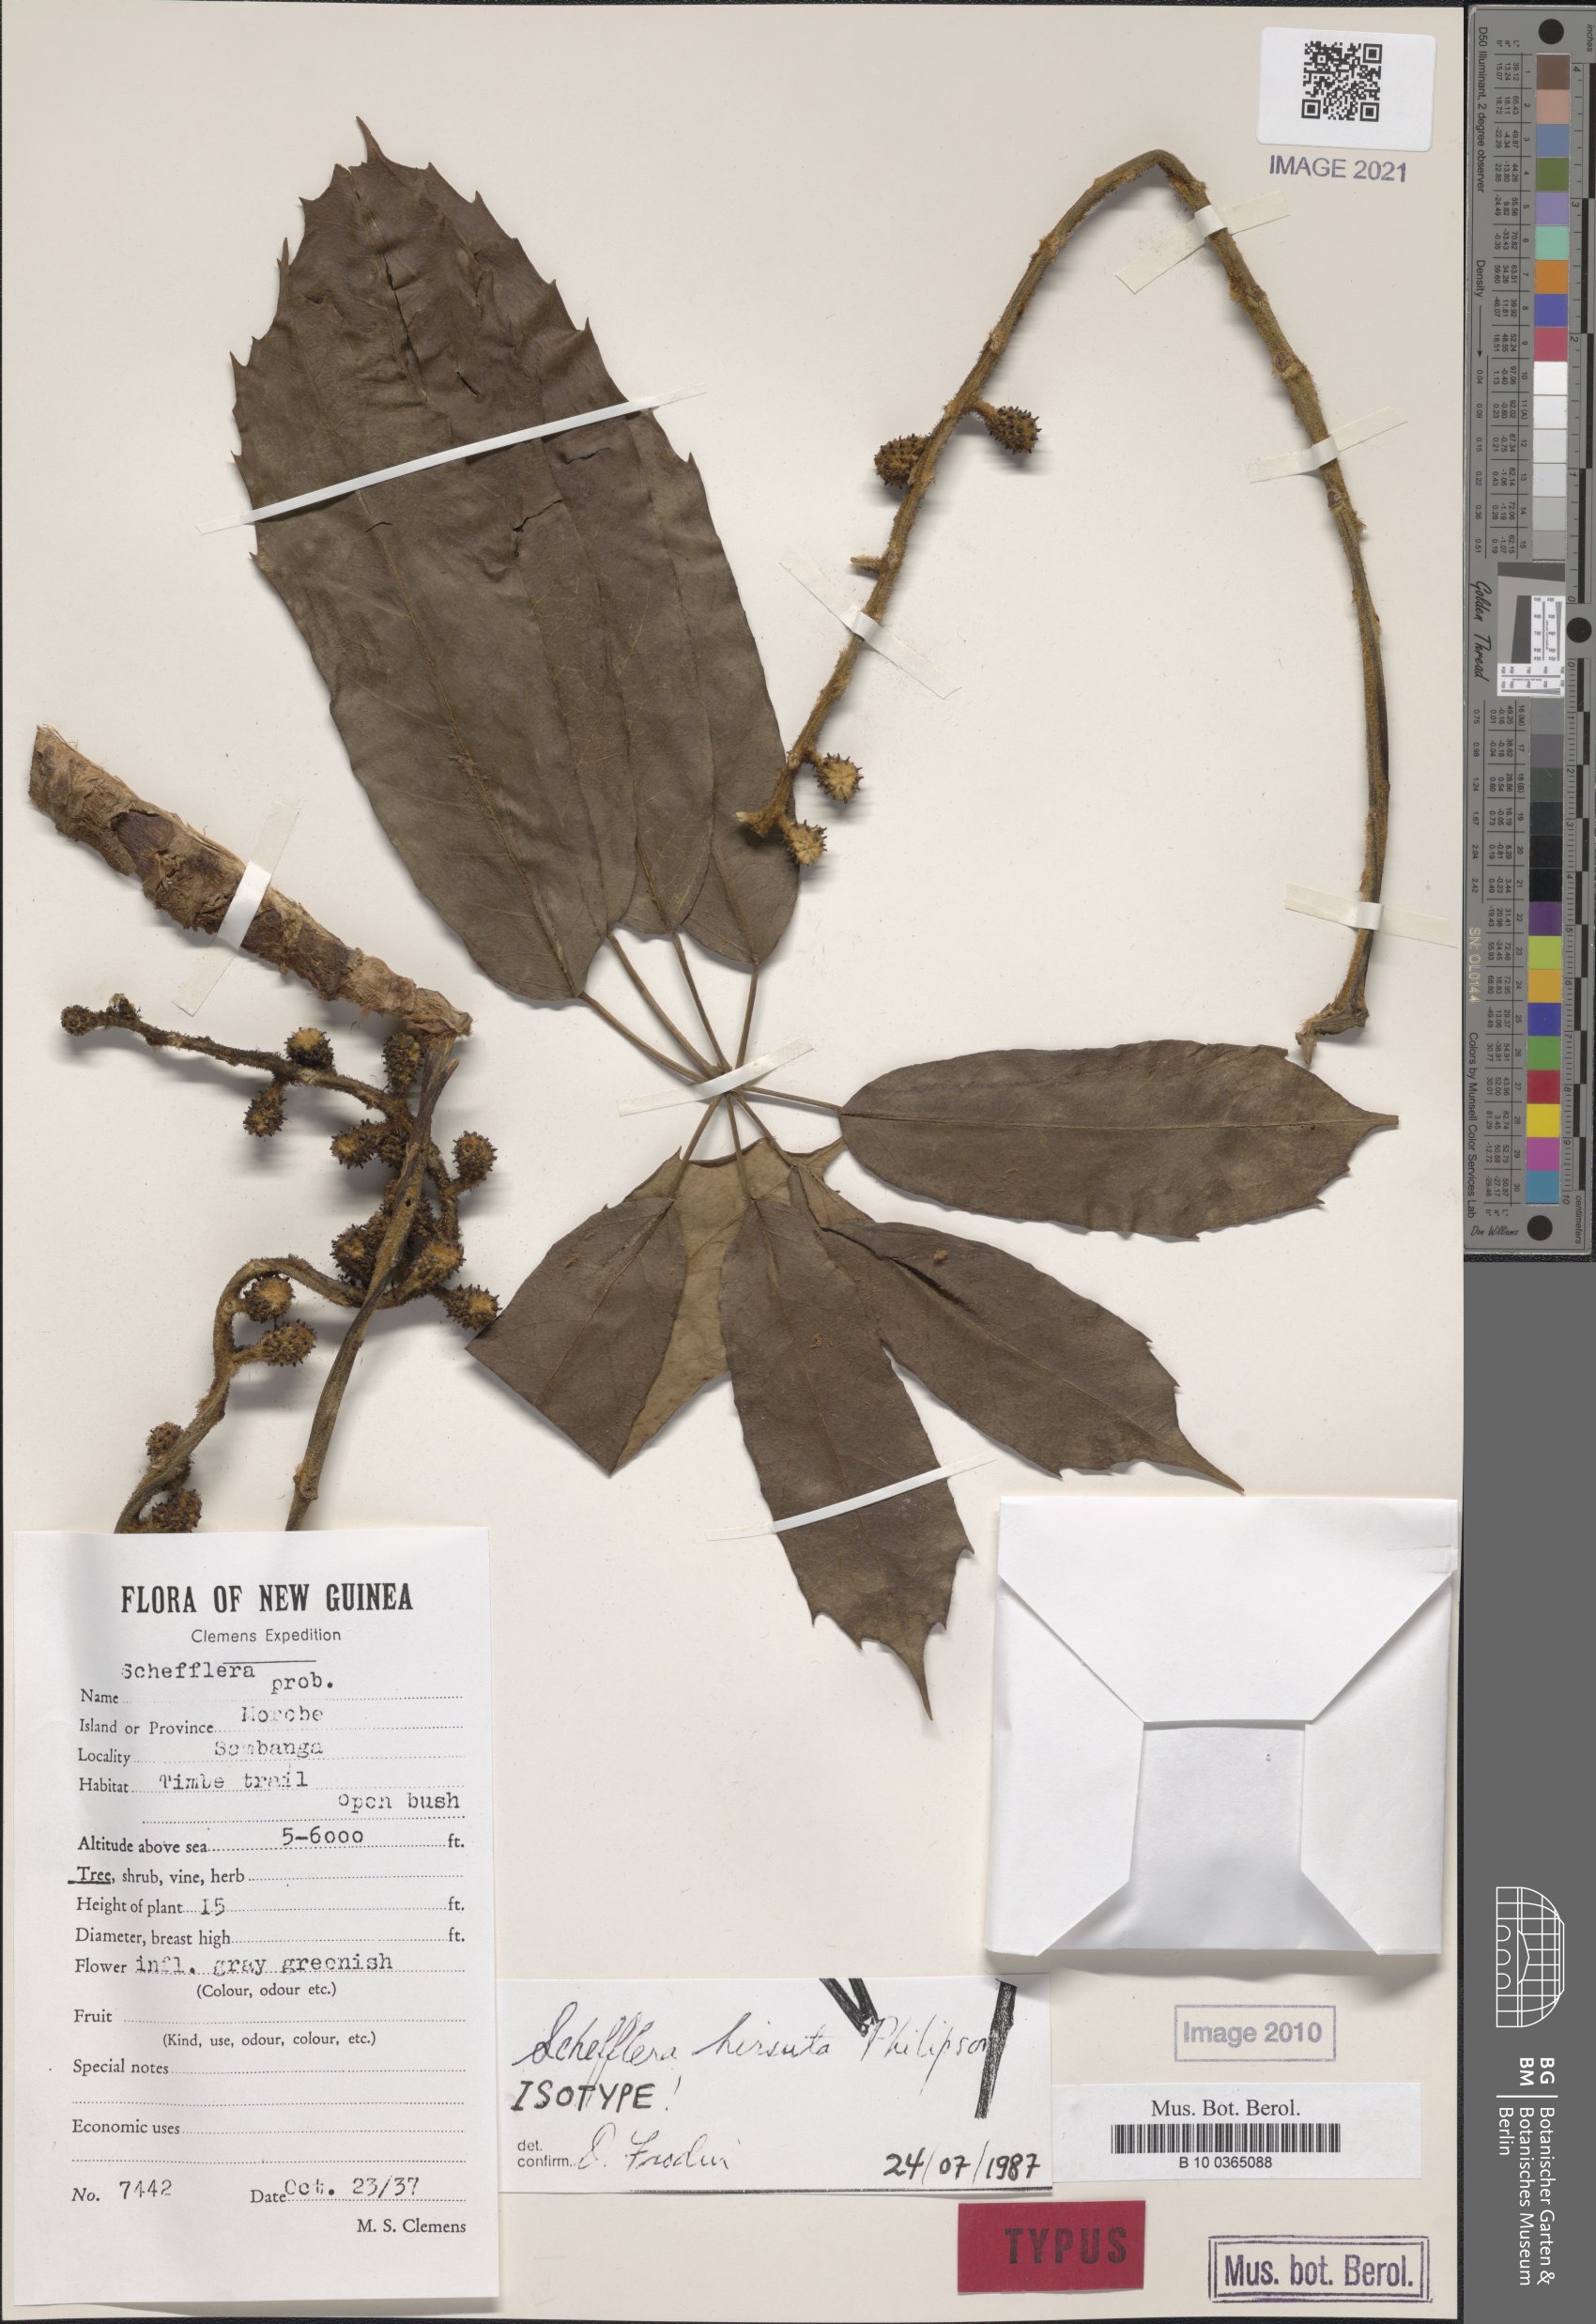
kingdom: Plantae
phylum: Tracheophyta
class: Magnoliopsida
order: Apiales
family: Araliaceae
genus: Heptapleurum
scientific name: Heptapleurum hirsutum
